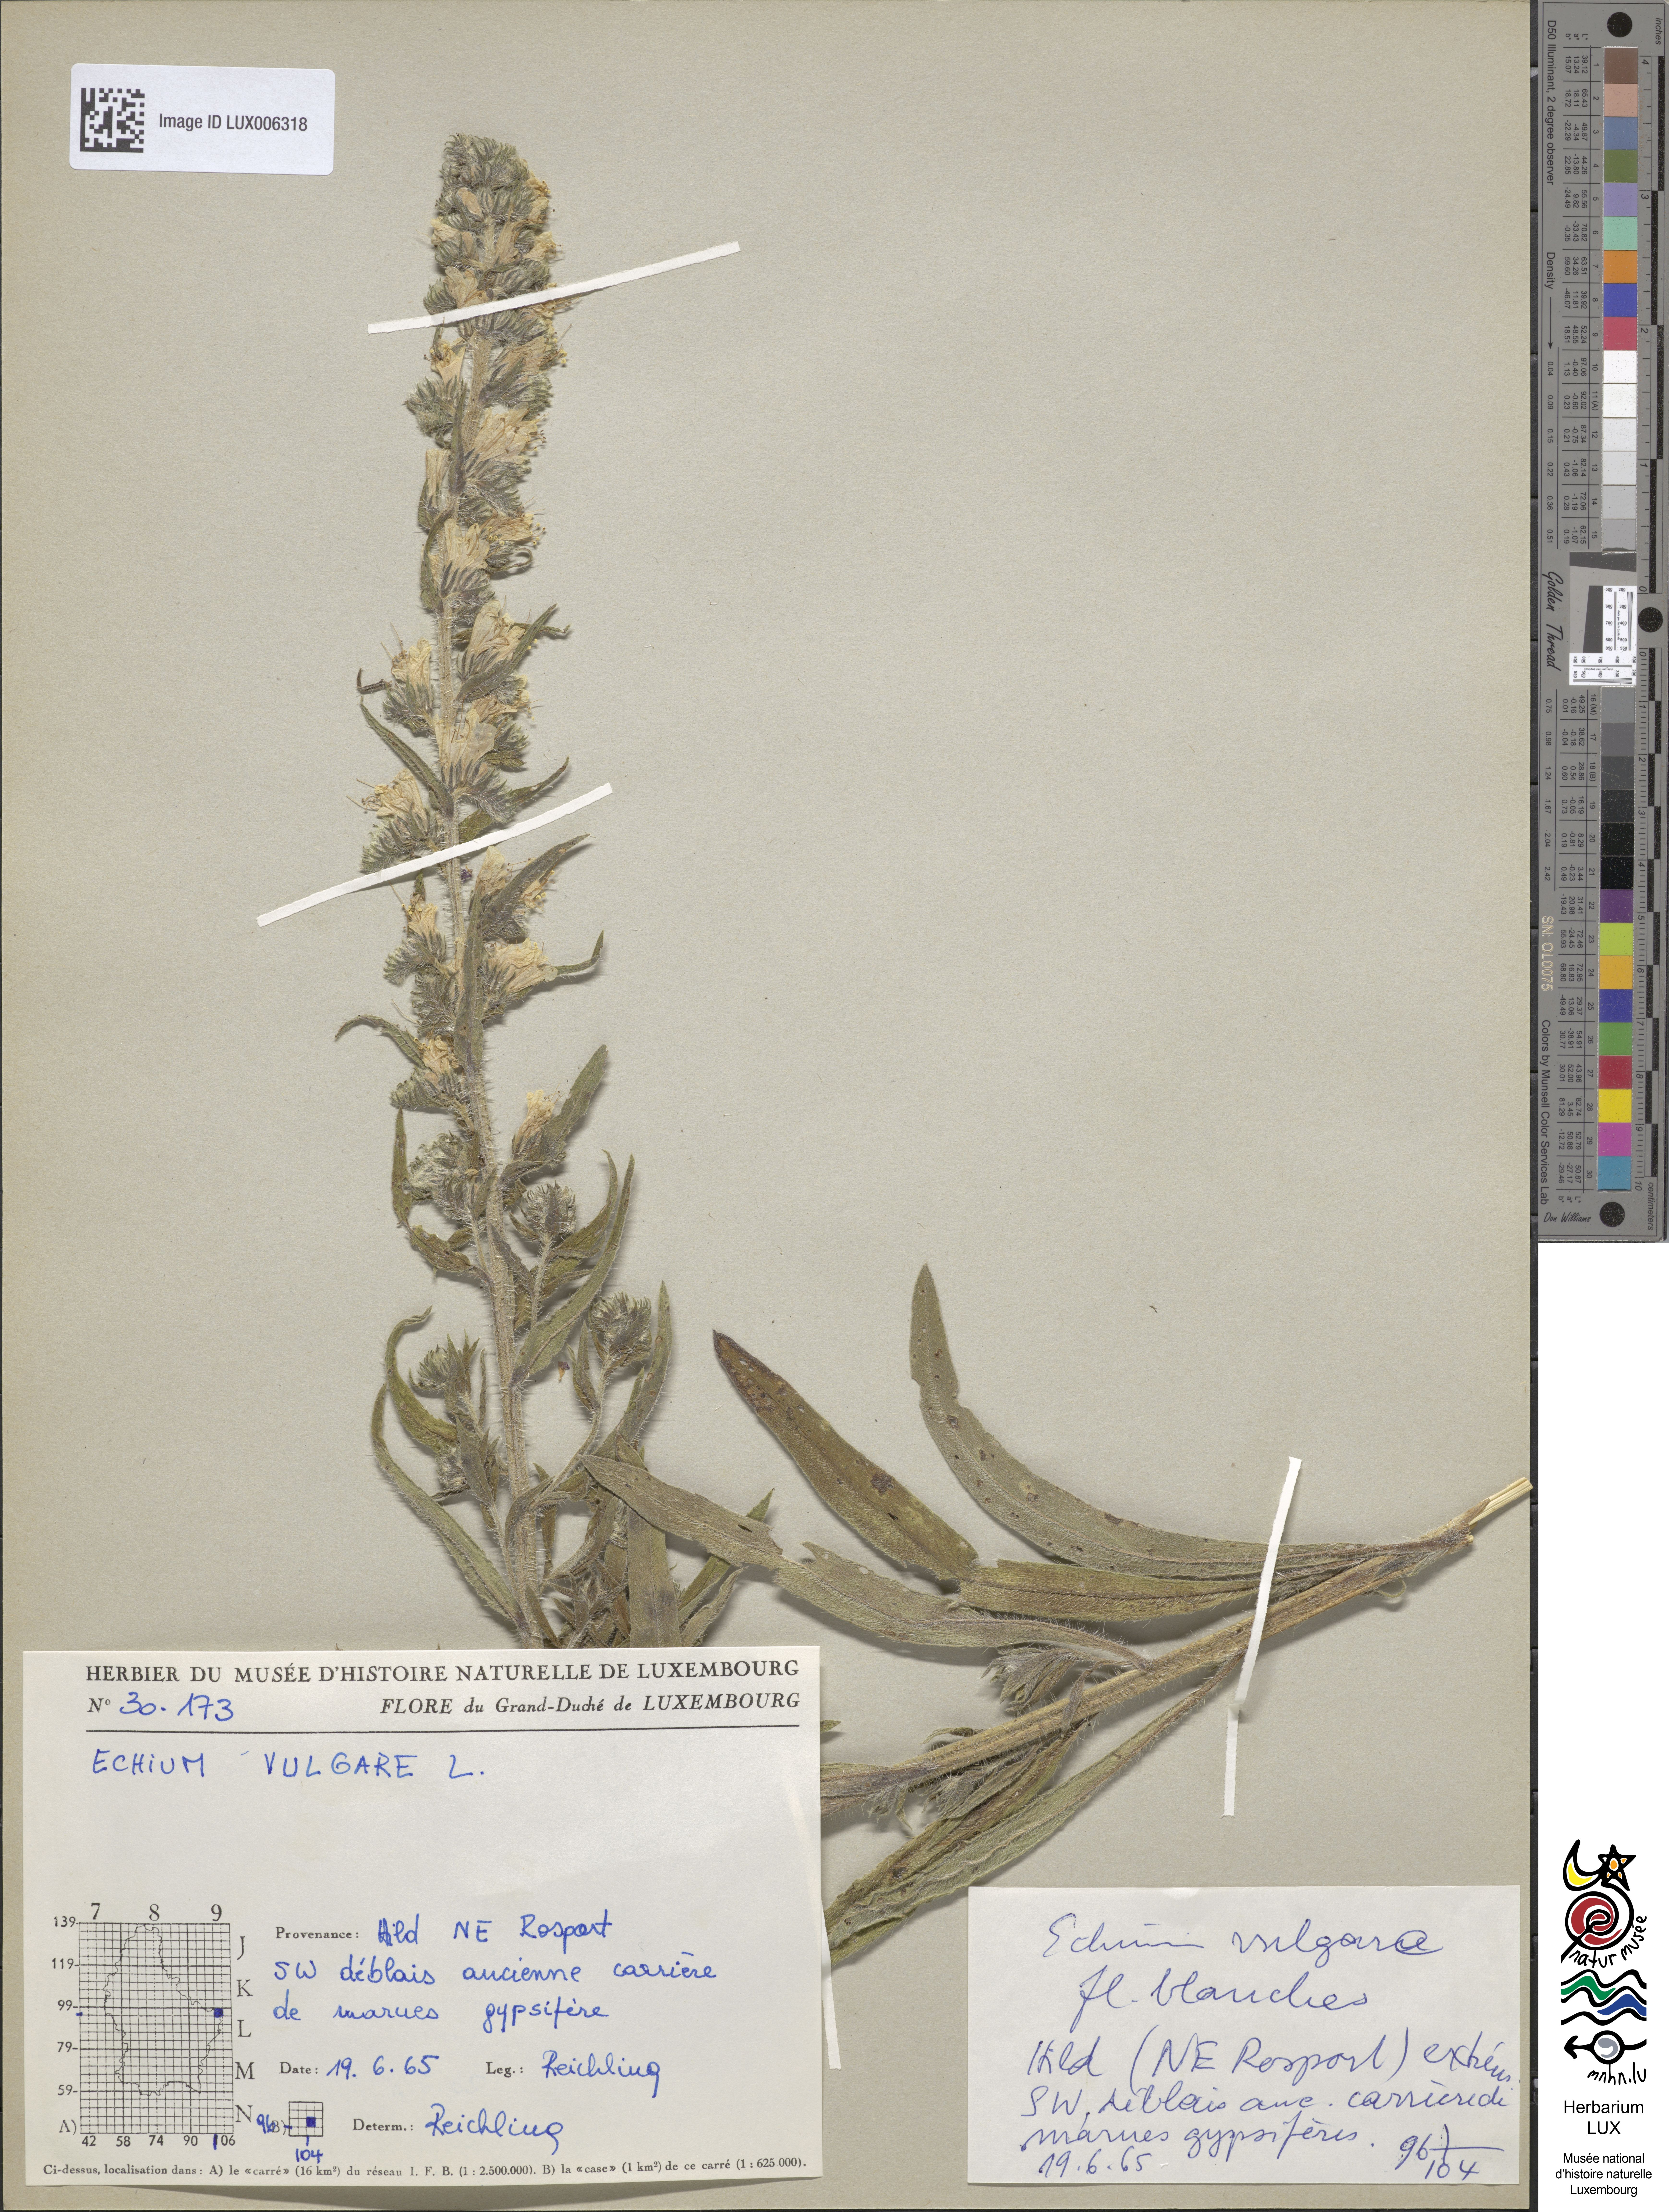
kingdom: Plantae
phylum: Tracheophyta
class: Magnoliopsida
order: Boraginales
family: Boraginaceae
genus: Echium
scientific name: Echium vulgare
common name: Common viper's bugloss
